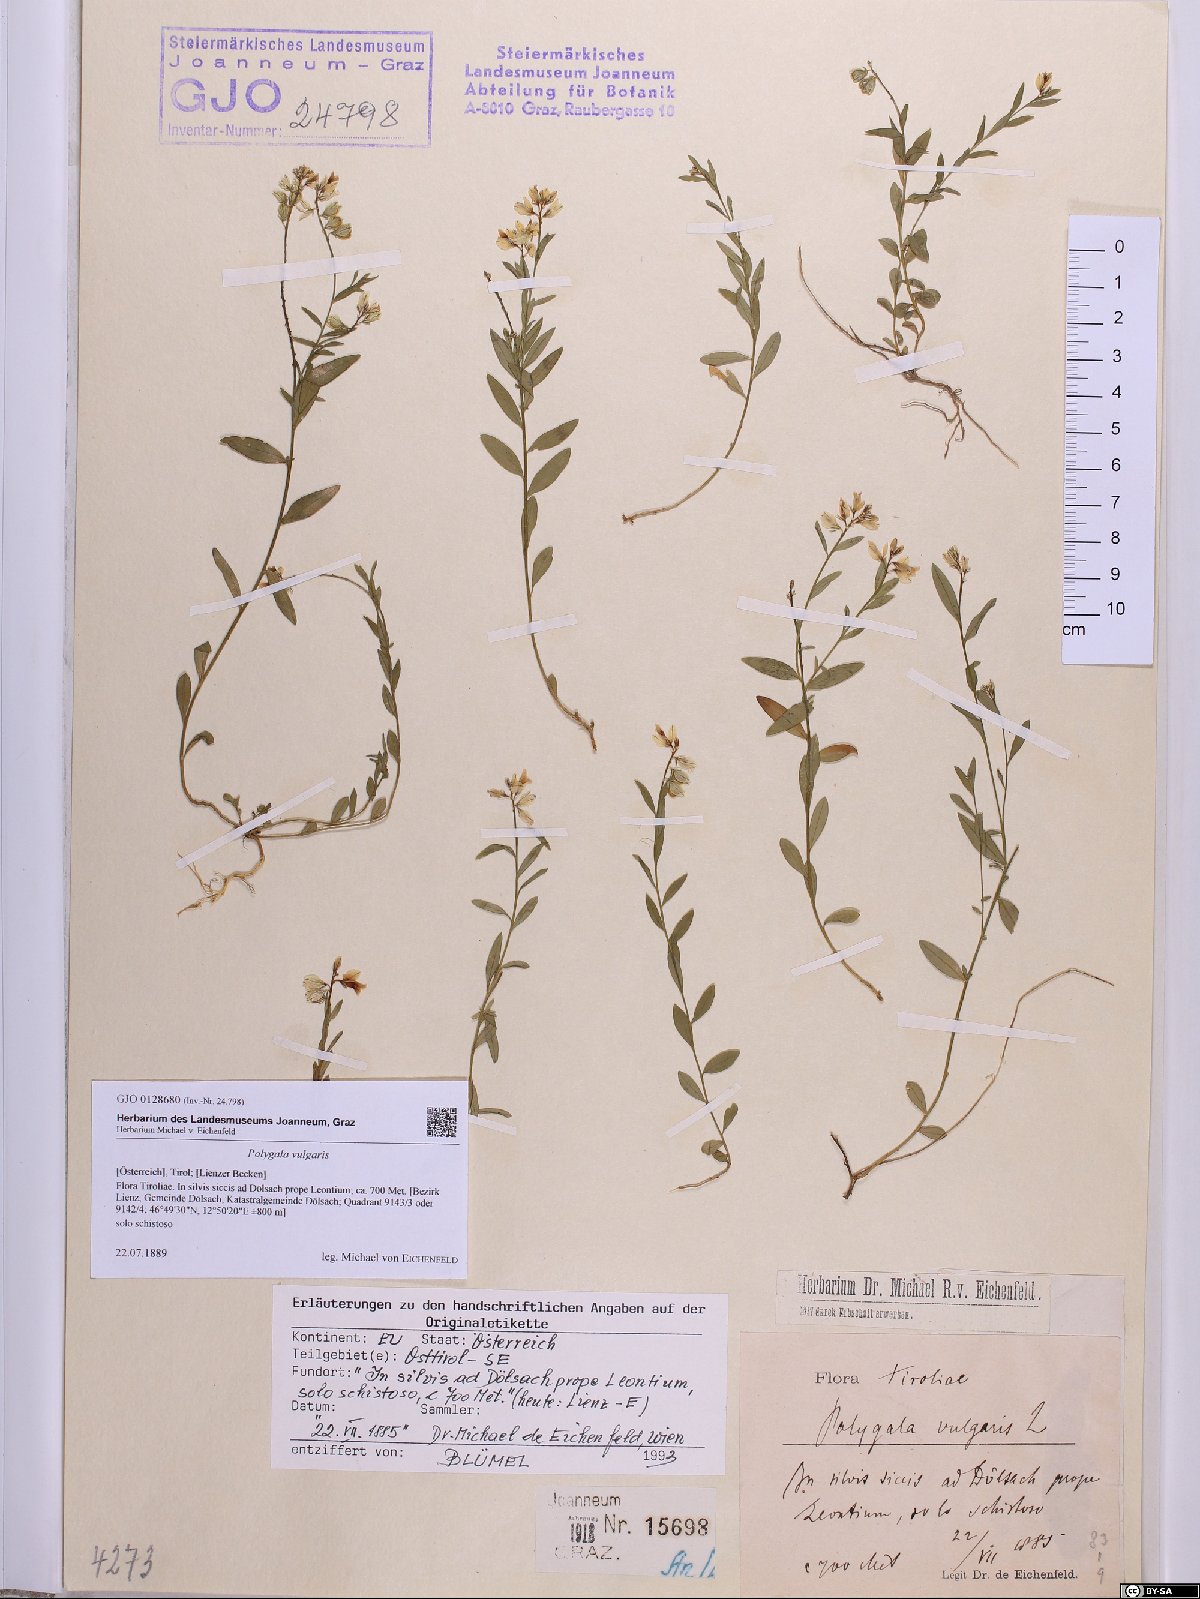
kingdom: Plantae
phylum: Tracheophyta
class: Magnoliopsida
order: Fabales
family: Polygalaceae
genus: Polygala
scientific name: Polygala vulgaris
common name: Common milkwort
